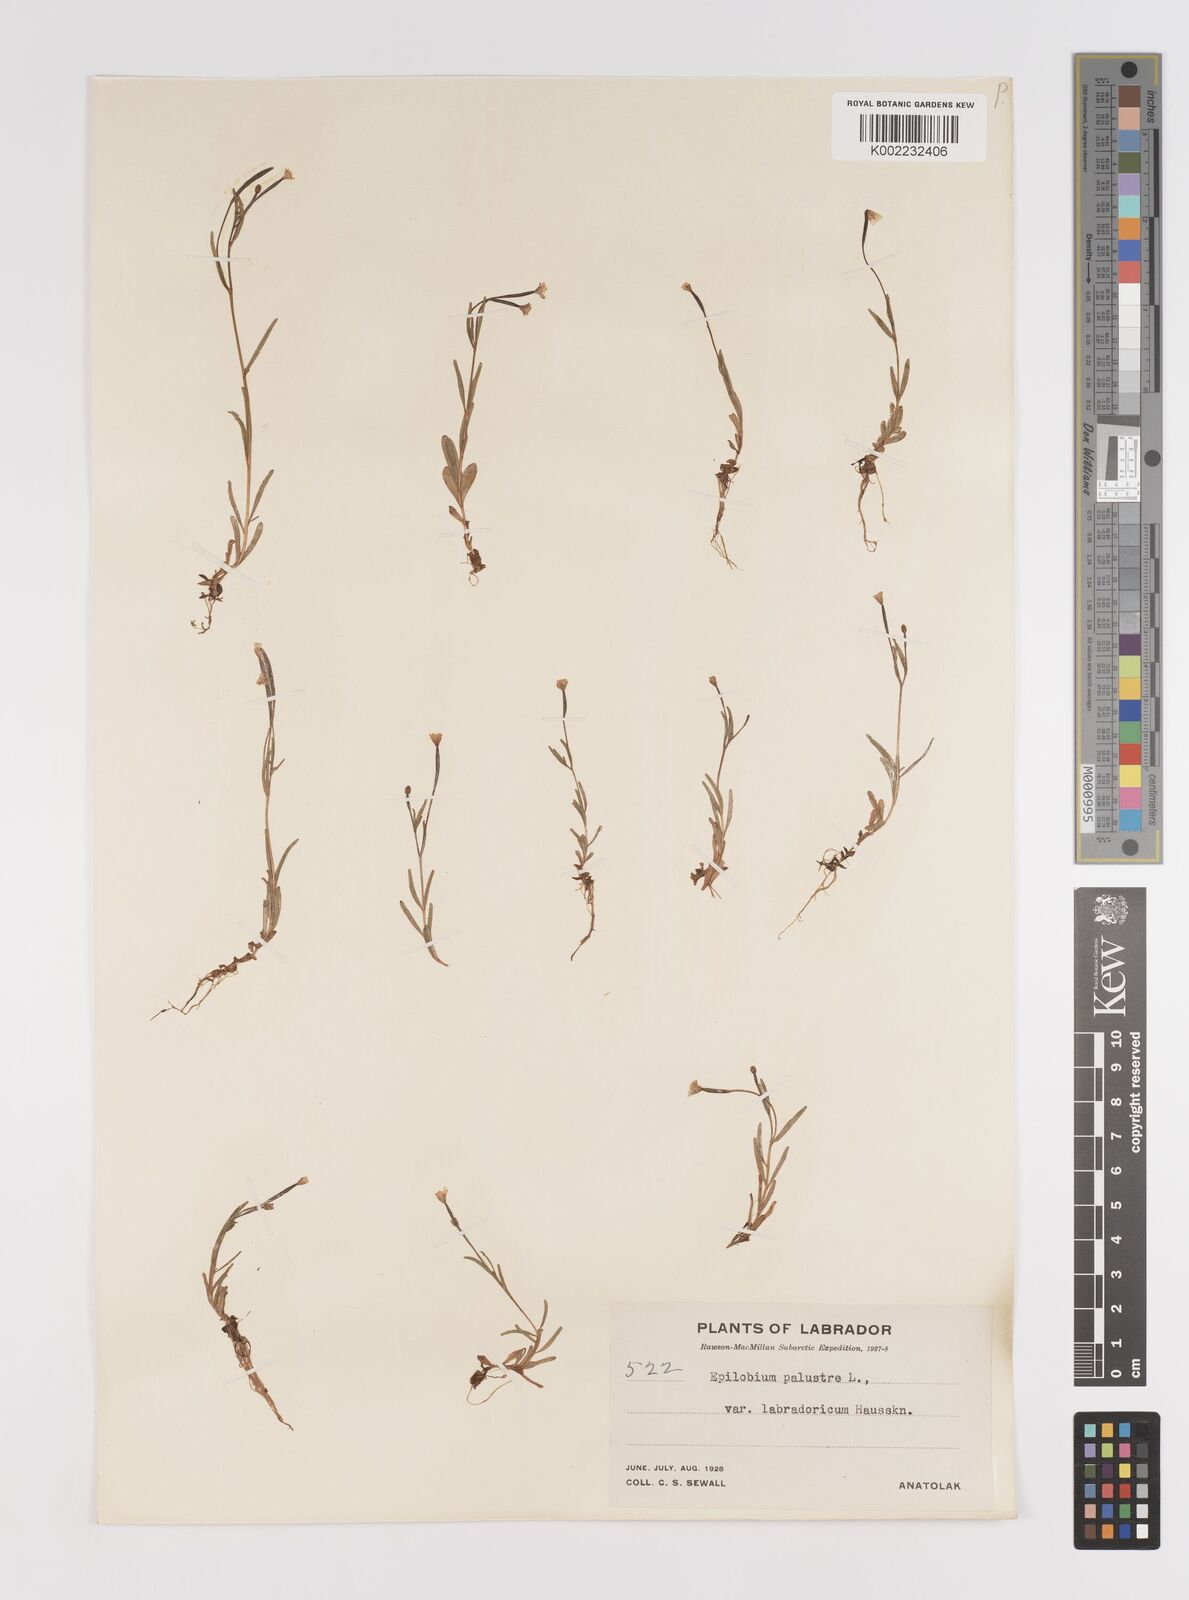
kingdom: Plantae
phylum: Tracheophyta
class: Magnoliopsida
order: Myrtales
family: Onagraceae
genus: Epilobium
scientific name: Epilobium palustre
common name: Marsh willowherb
